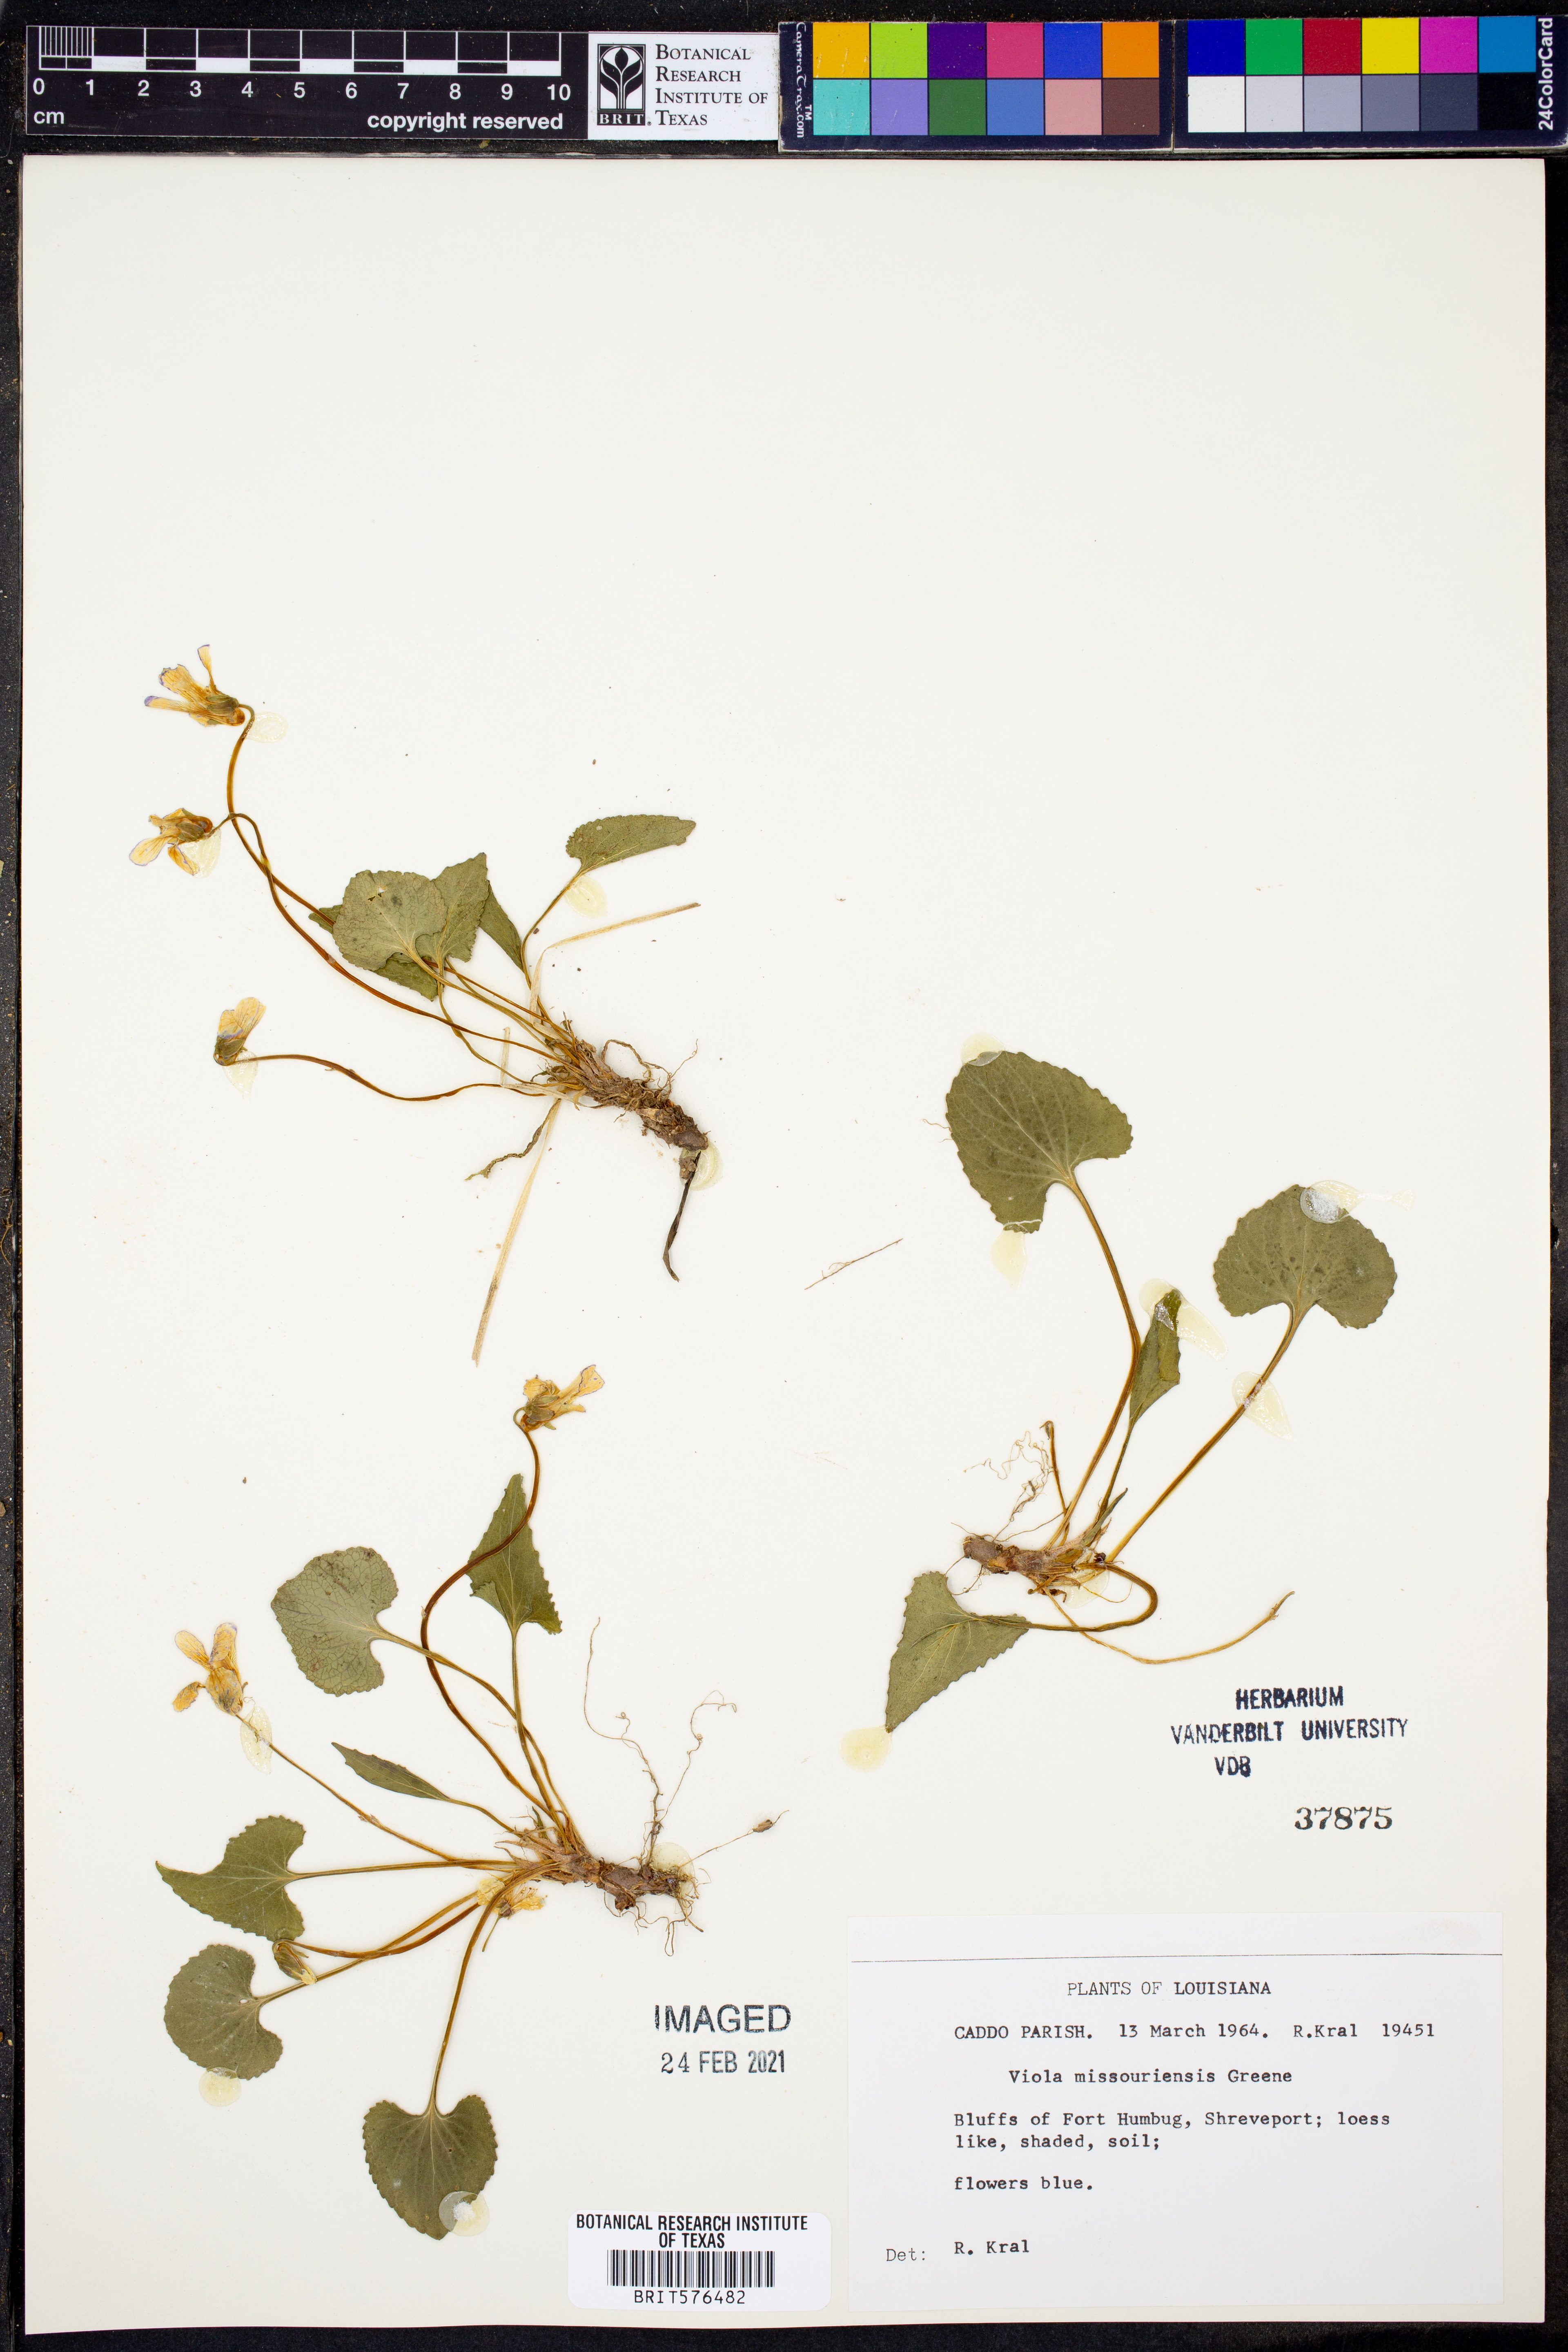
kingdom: Plantae
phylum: Tracheophyta
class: Magnoliopsida
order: Malpighiales
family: Violaceae
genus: Viola
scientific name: Viola missouriensis
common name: Missouri violet
